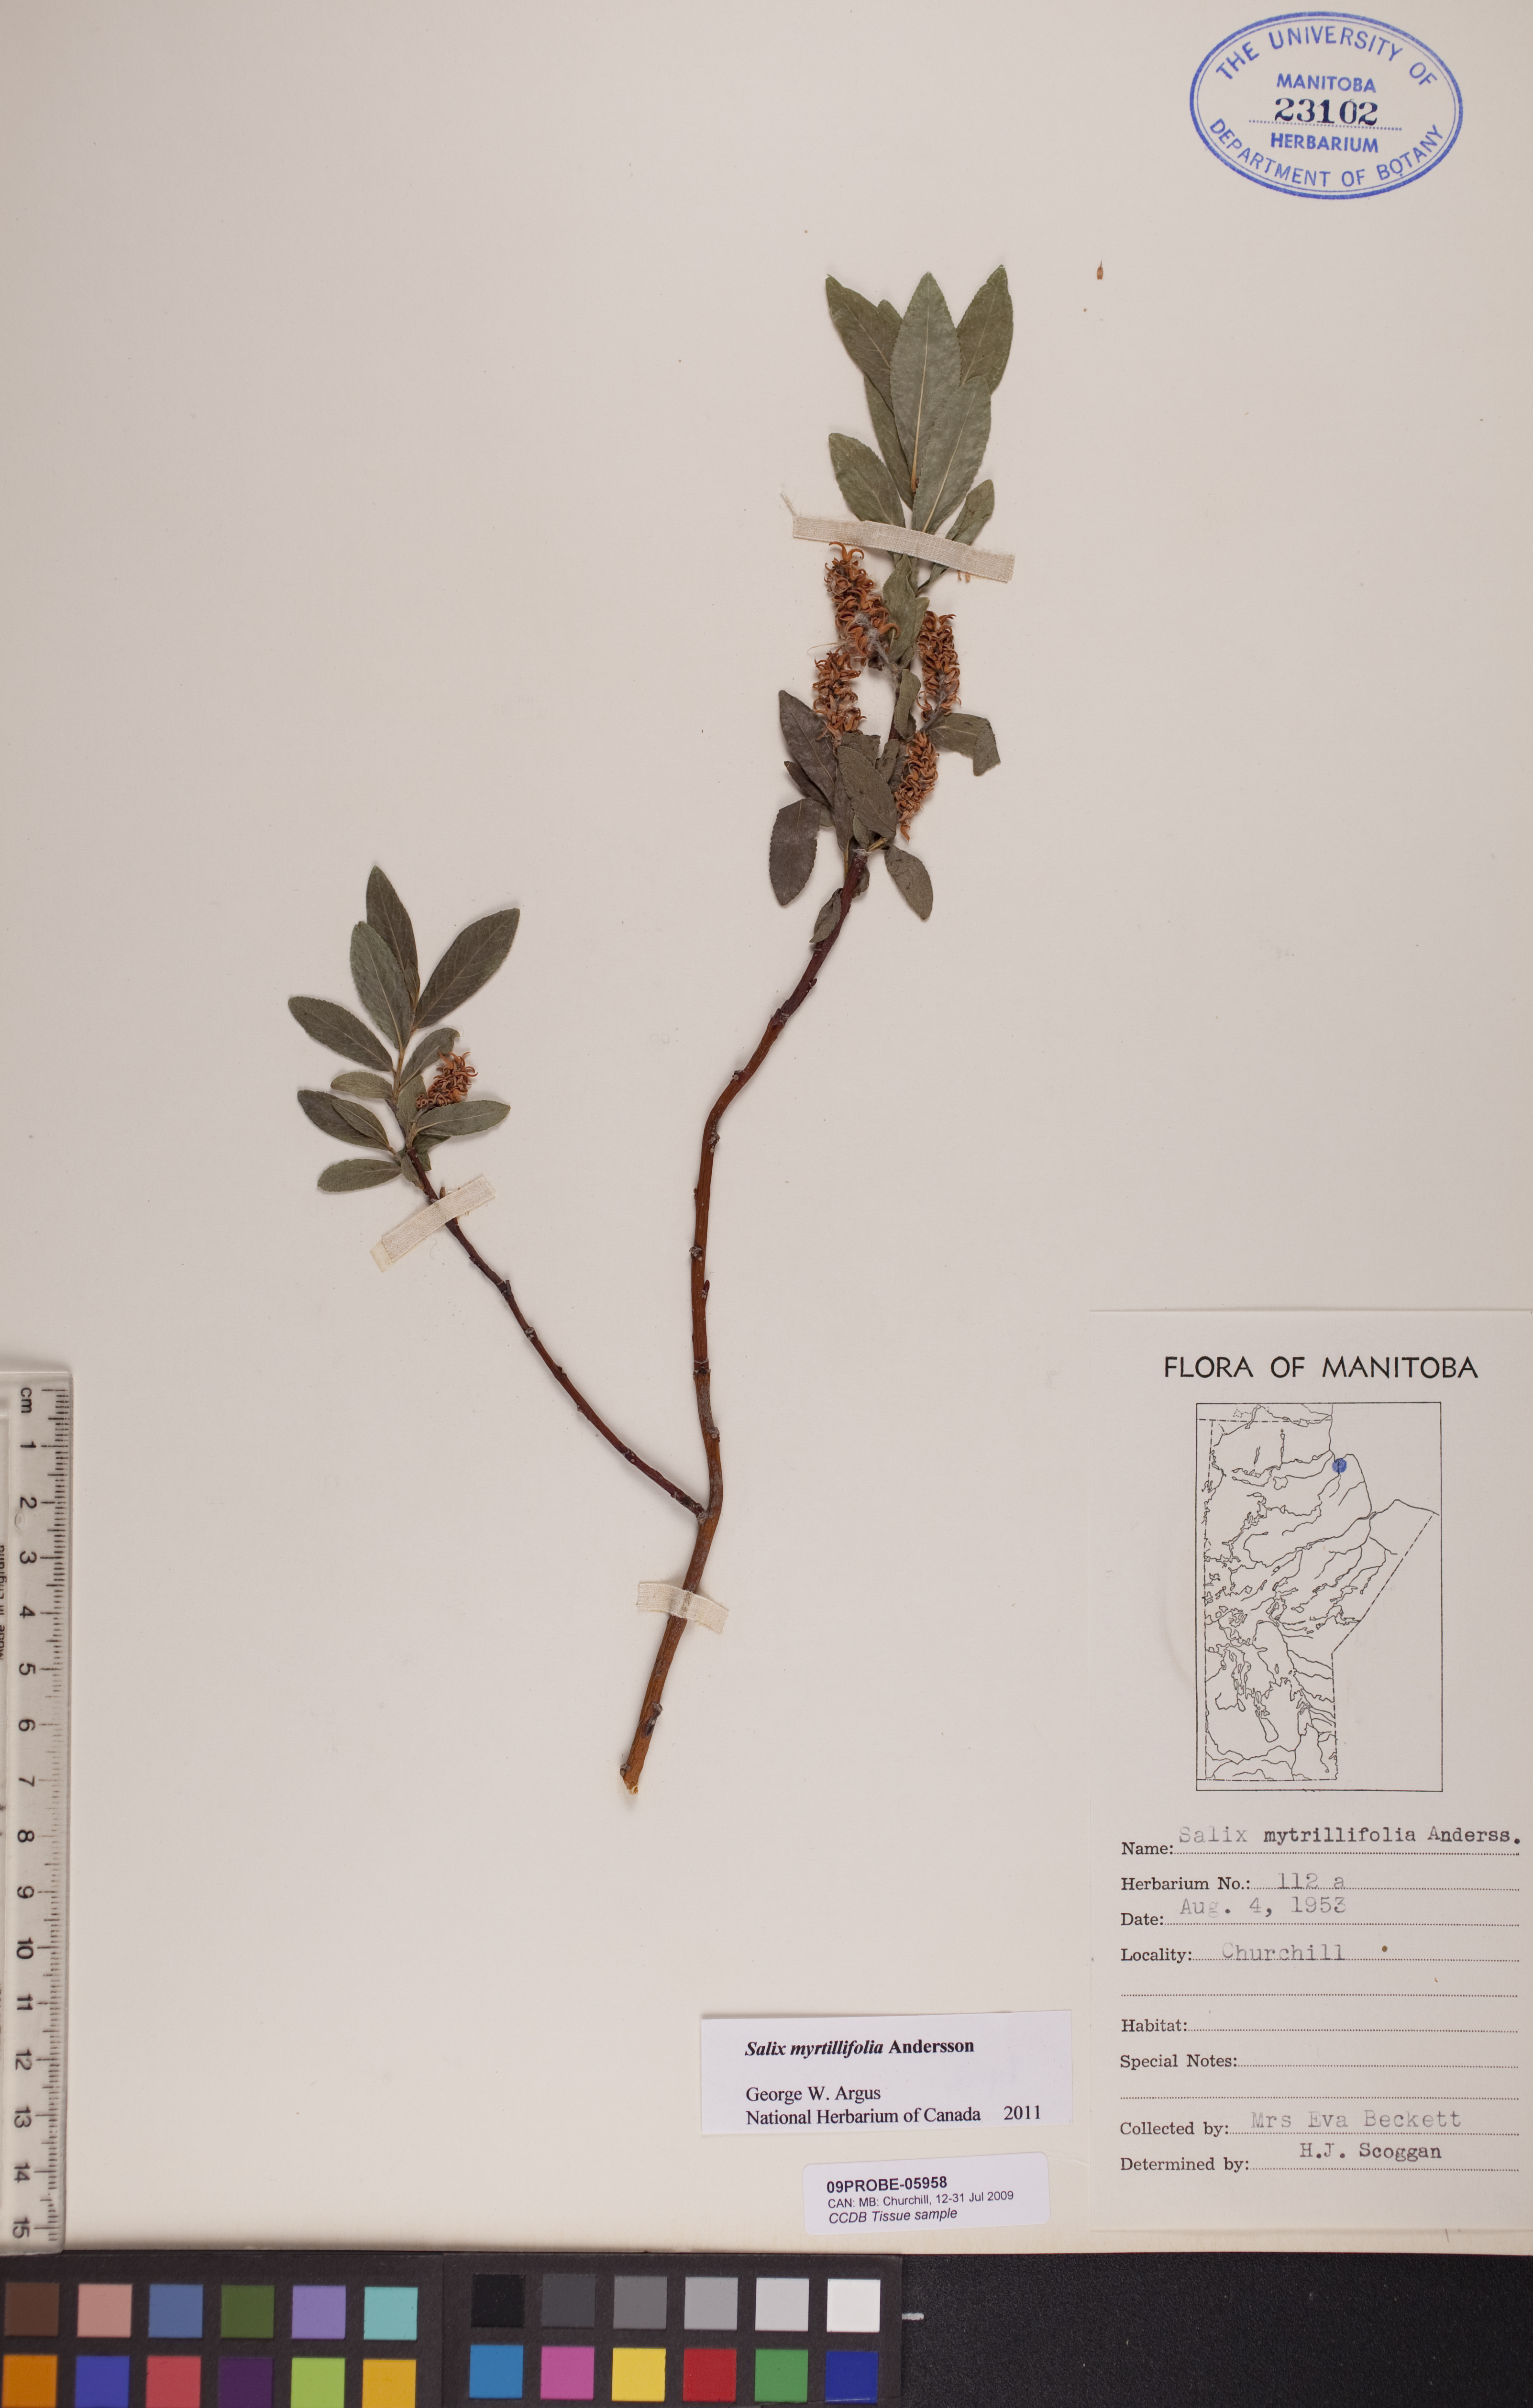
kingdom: Plantae
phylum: Tracheophyta
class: Magnoliopsida
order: Malpighiales
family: Salicaceae
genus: Salix
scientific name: Salix myrtillifolia
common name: Bilberry willow
